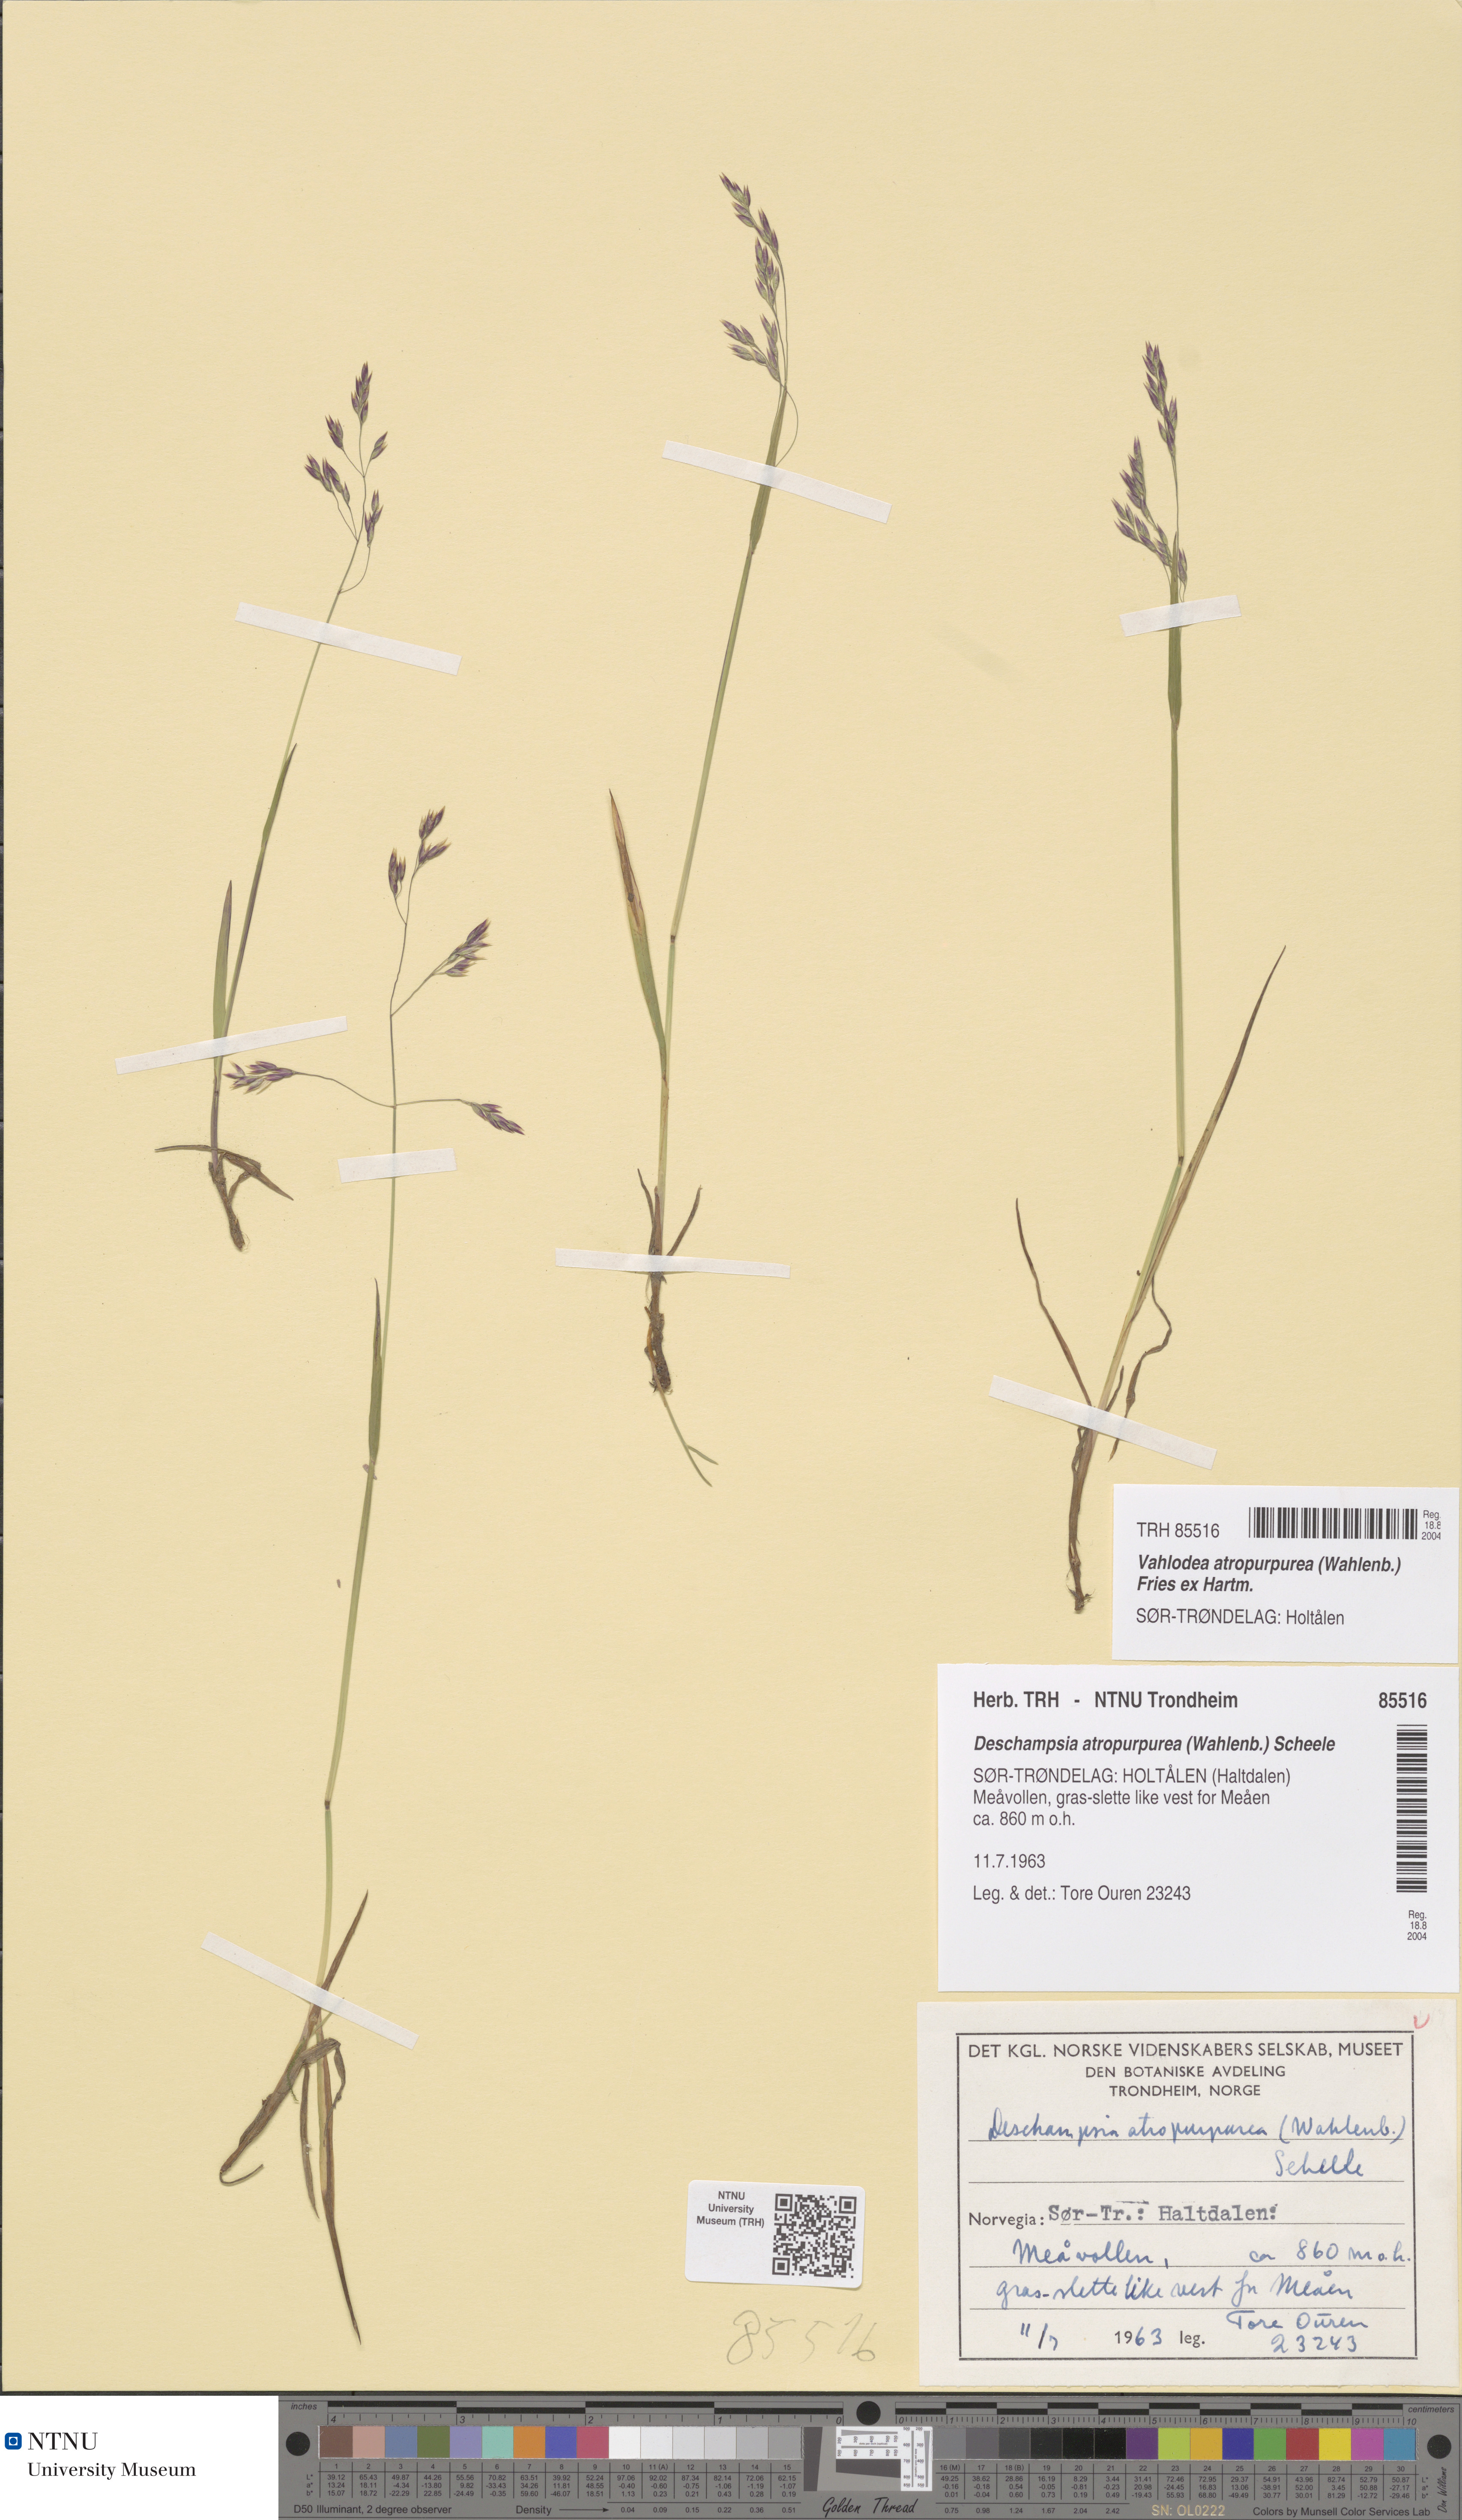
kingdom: Plantae
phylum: Tracheophyta
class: Liliopsida
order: Poales
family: Poaceae
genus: Vahlodea
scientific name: Vahlodea atropurpurea
